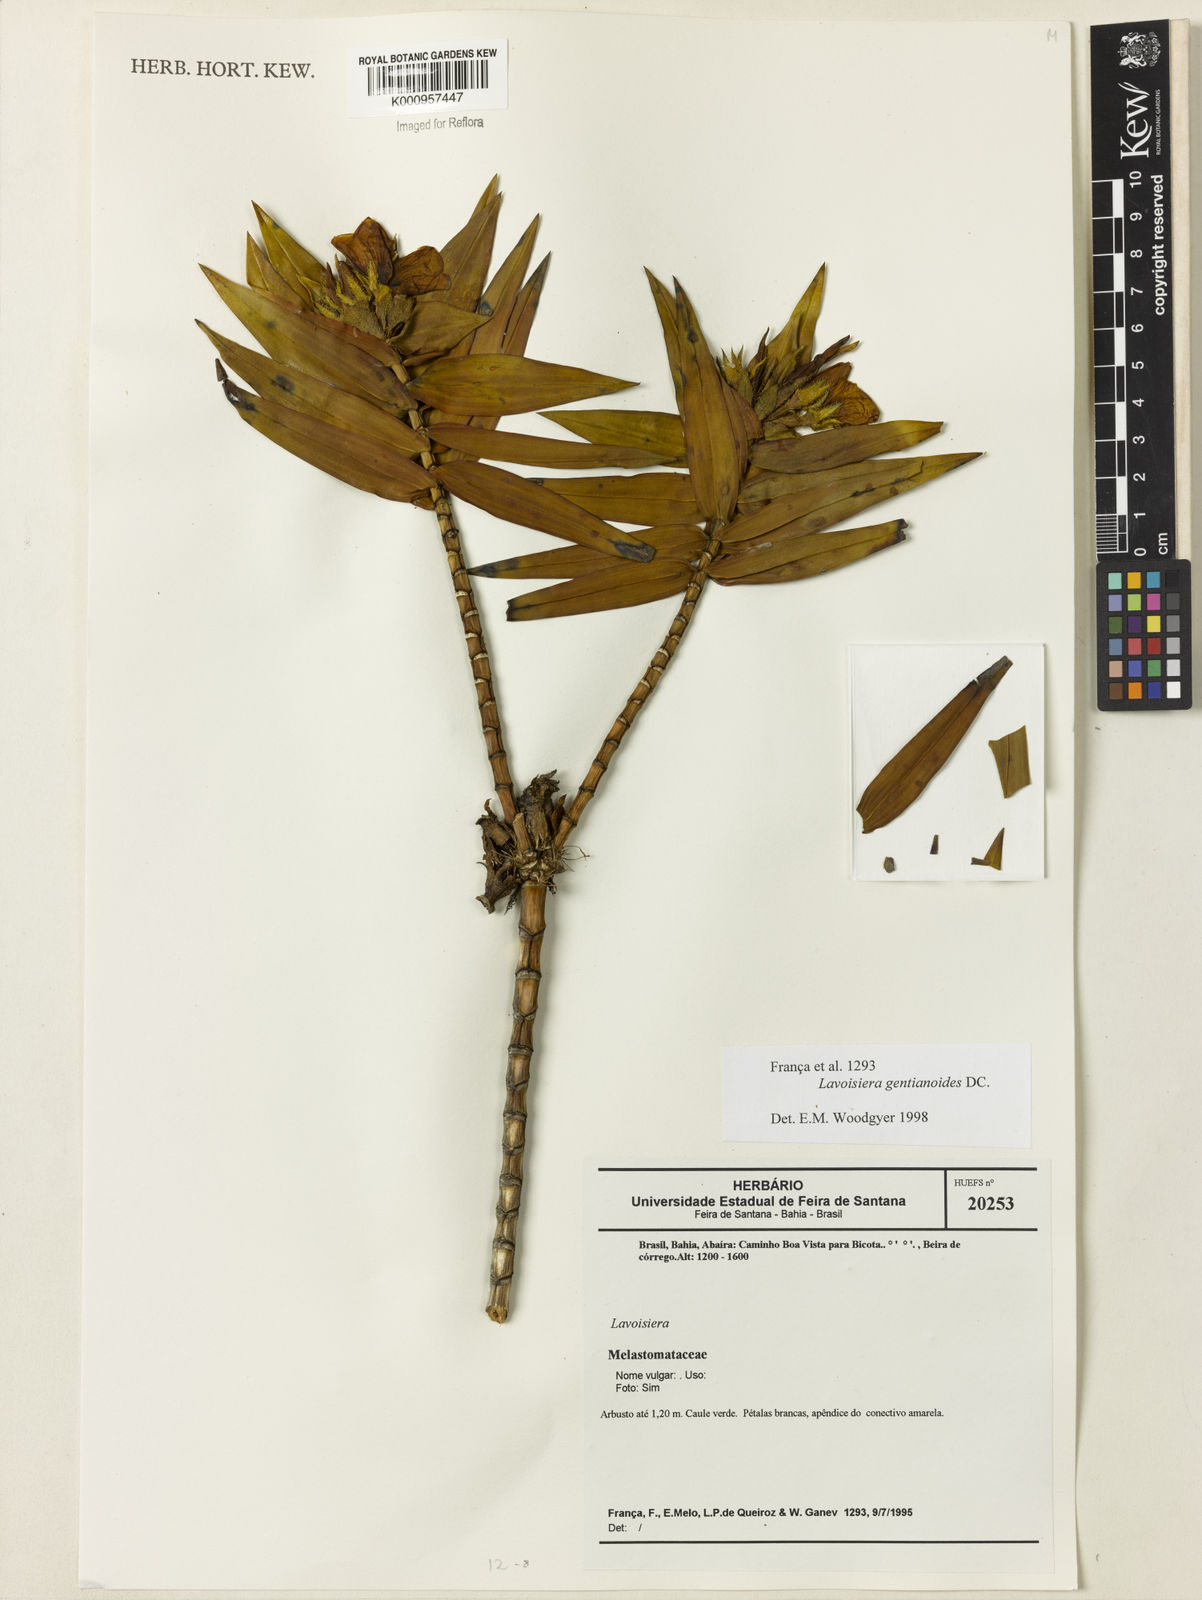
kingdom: Plantae
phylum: Tracheophyta
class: Magnoliopsida
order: Myrtales
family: Melastomataceae
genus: Microlicia
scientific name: Microlicia gentianoides
